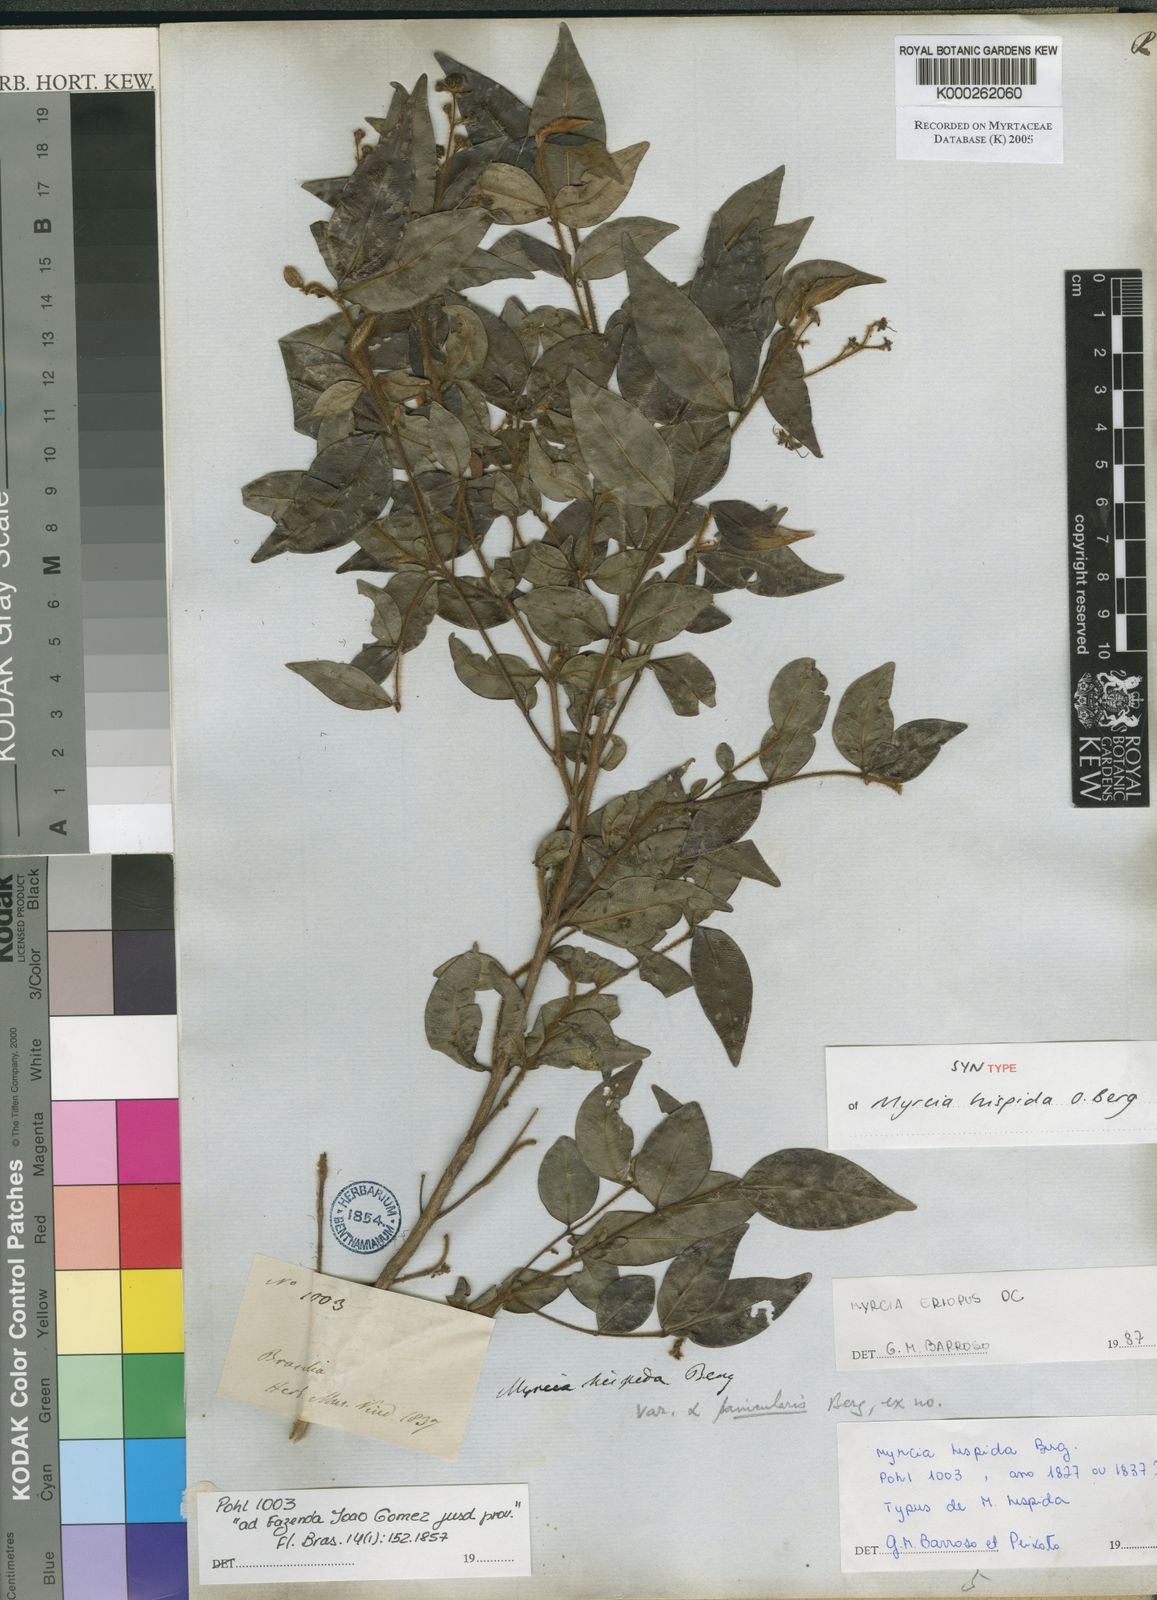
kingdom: Plantae
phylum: Tracheophyta
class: Magnoliopsida
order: Myrtales
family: Myrtaceae
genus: Myrcia
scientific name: Myrcia eriopus
